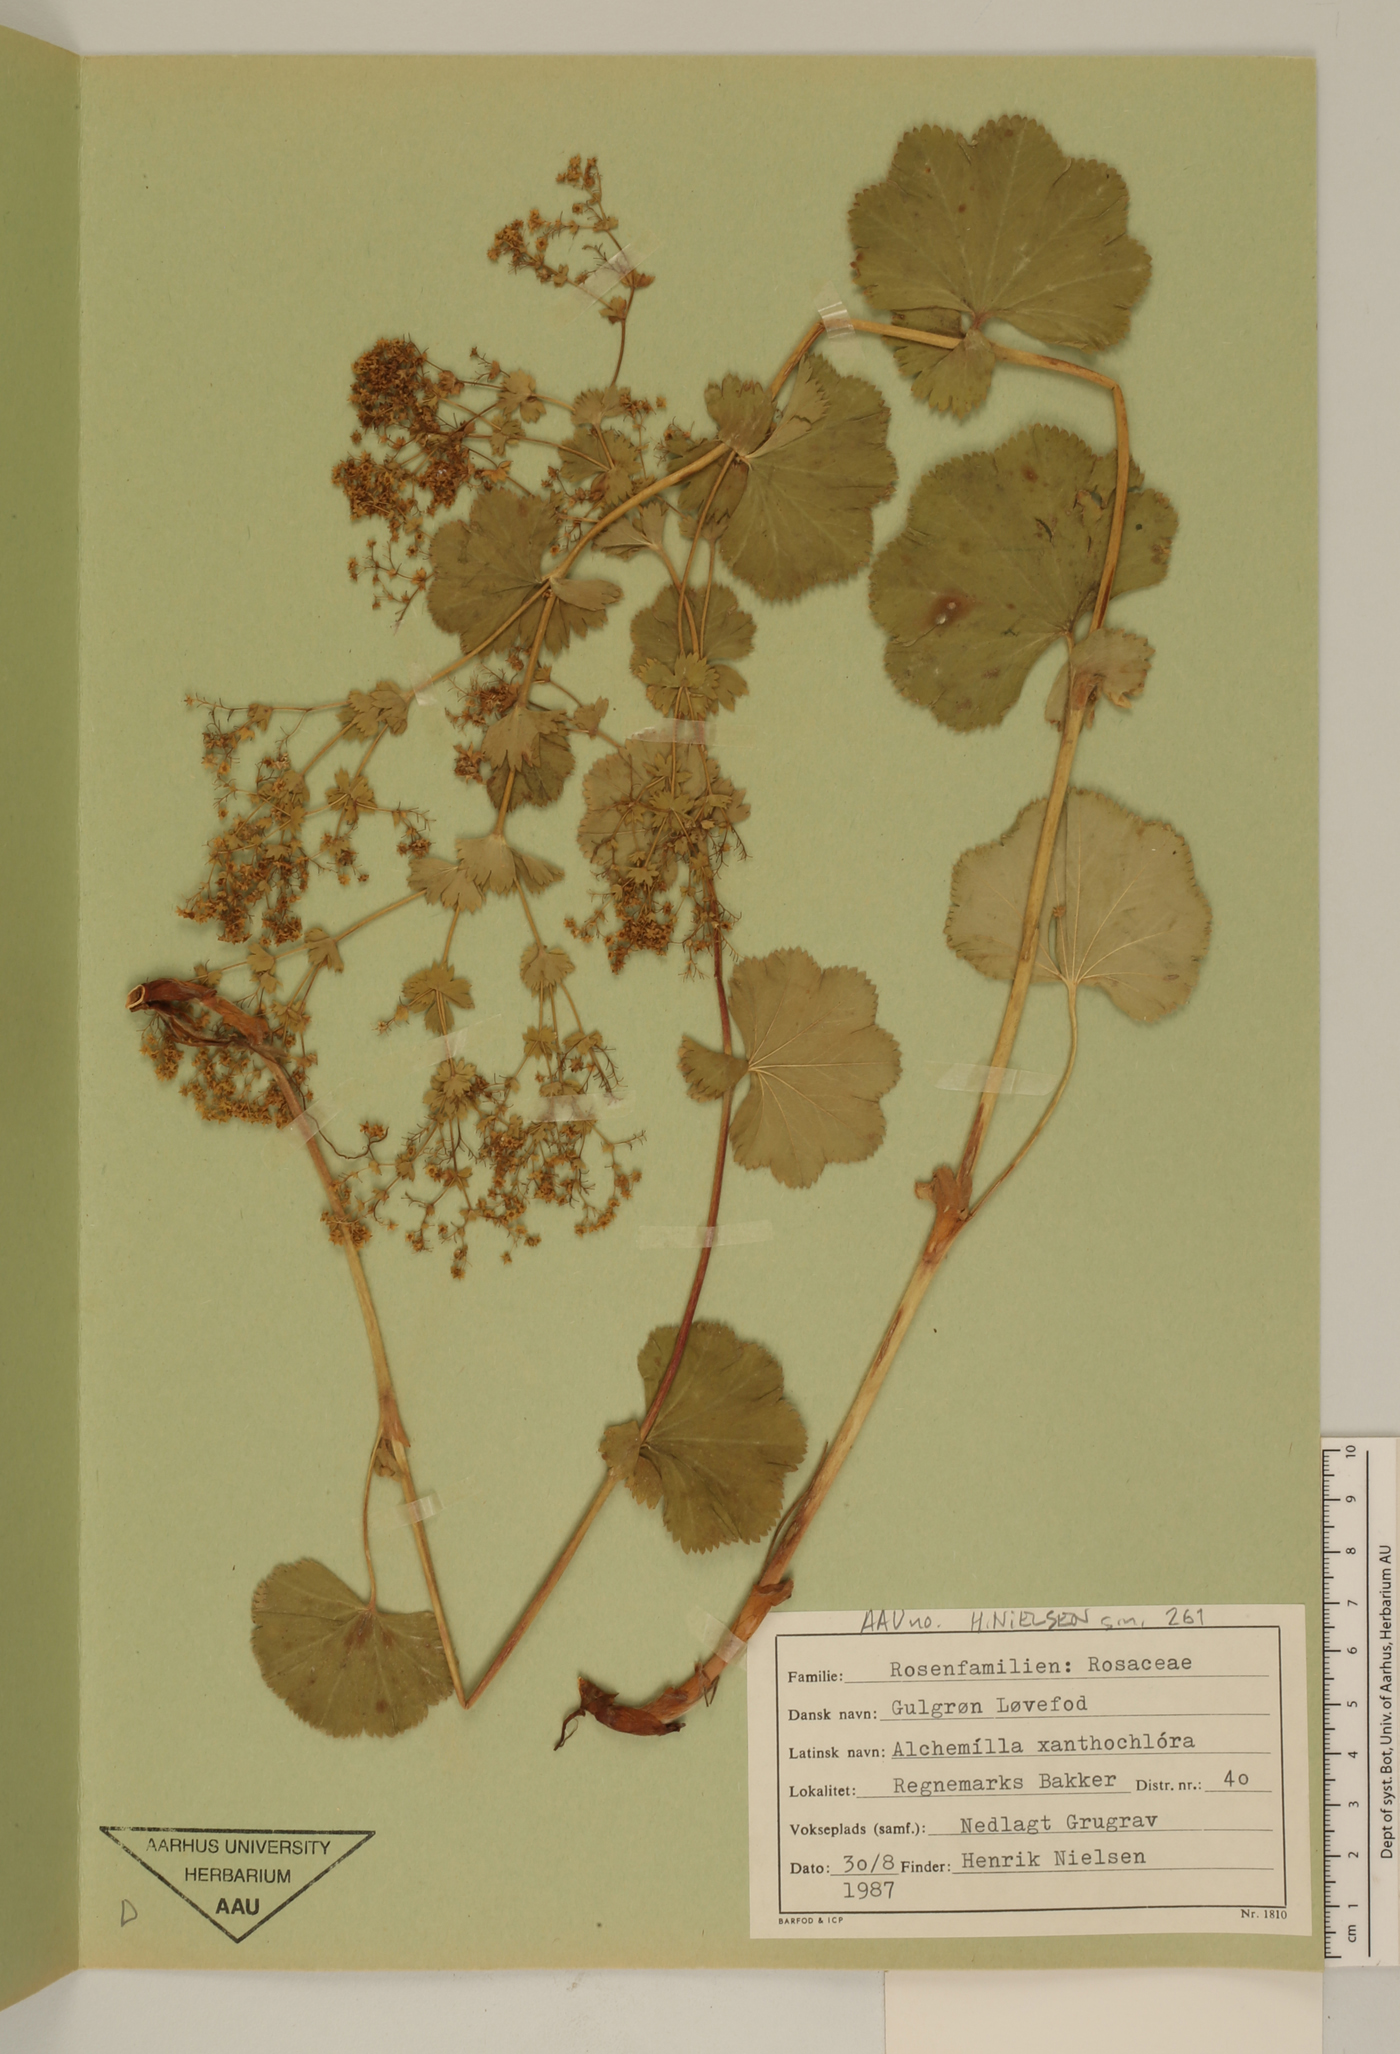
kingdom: Plantae
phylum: Tracheophyta
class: Magnoliopsida
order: Rosales
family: Rosaceae
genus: Alchemilla
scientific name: Alchemilla mollis
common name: Lady's-mantle
